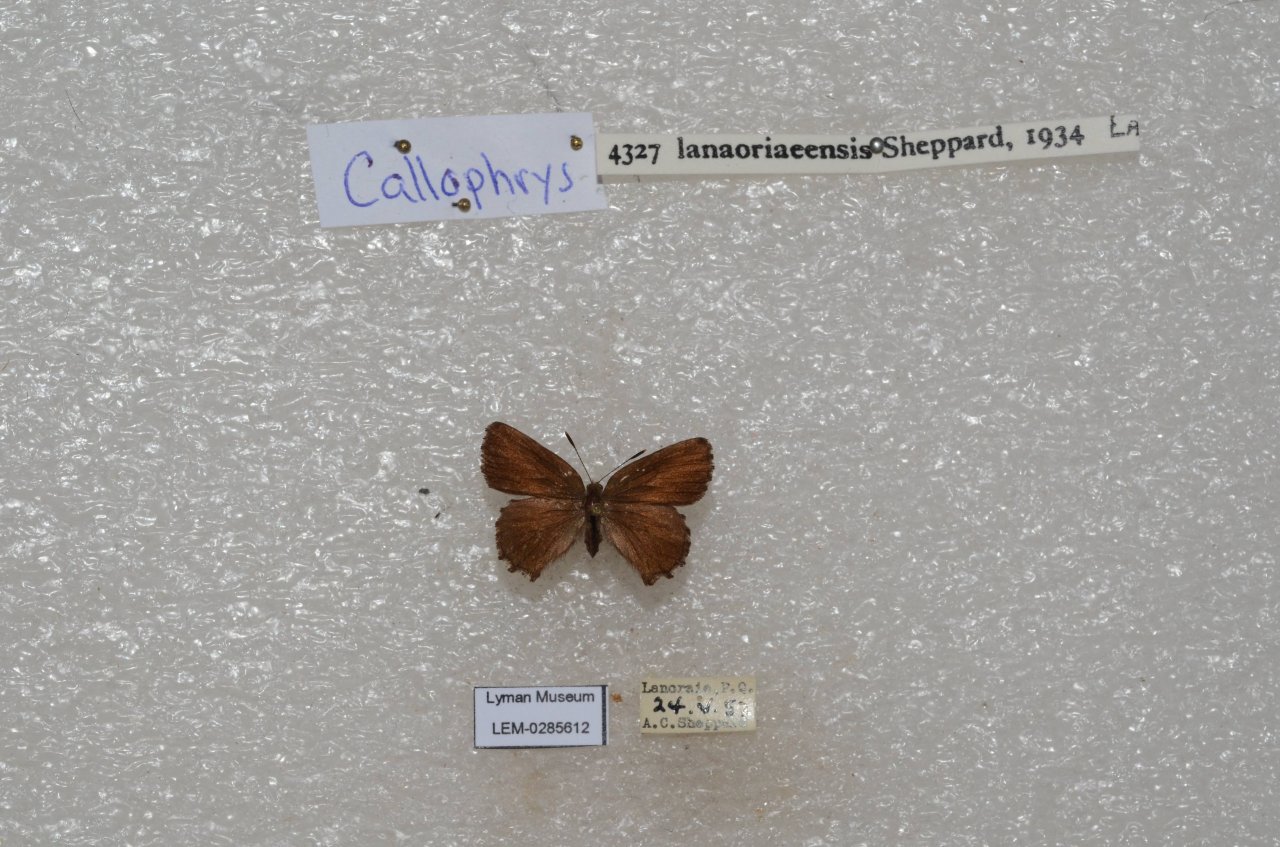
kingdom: Animalia
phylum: Arthropoda
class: Insecta
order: Lepidoptera
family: Lycaenidae
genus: Incisalia
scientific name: Incisalia lanoraieensis
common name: Bog Elfin
